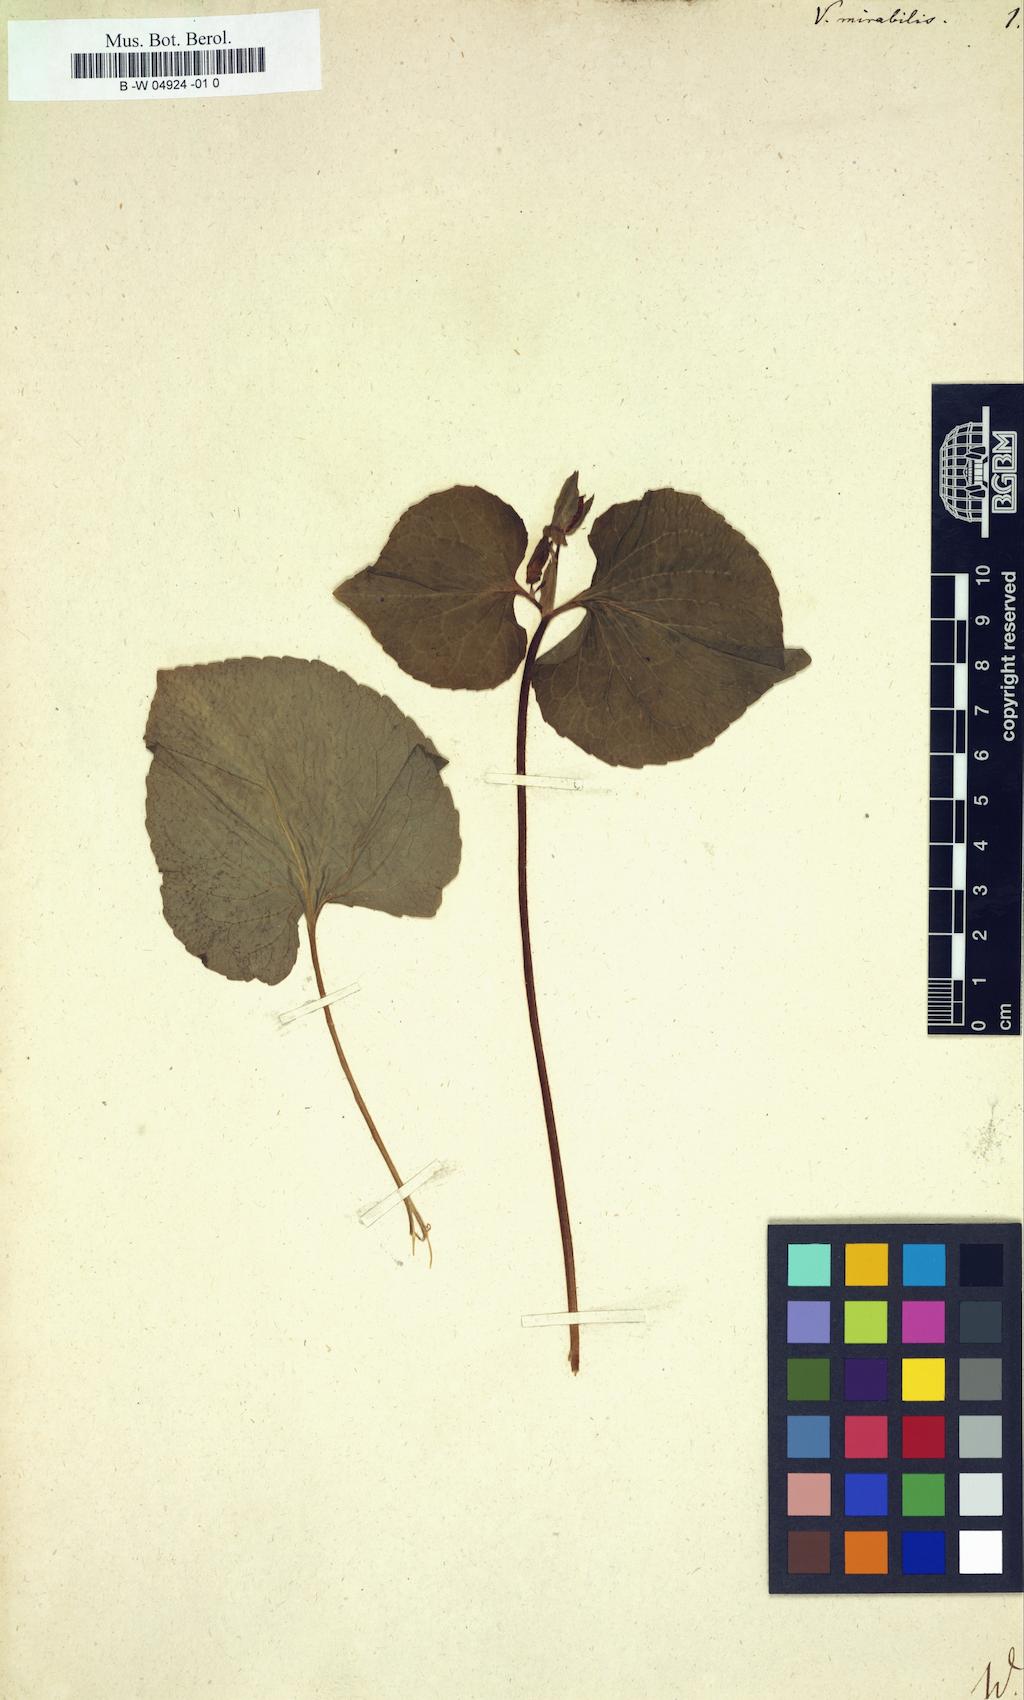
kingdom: Plantae
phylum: Tracheophyta
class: Magnoliopsida
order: Malpighiales
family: Violaceae
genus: Viola
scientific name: Viola mirabilis
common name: Wonder violet
